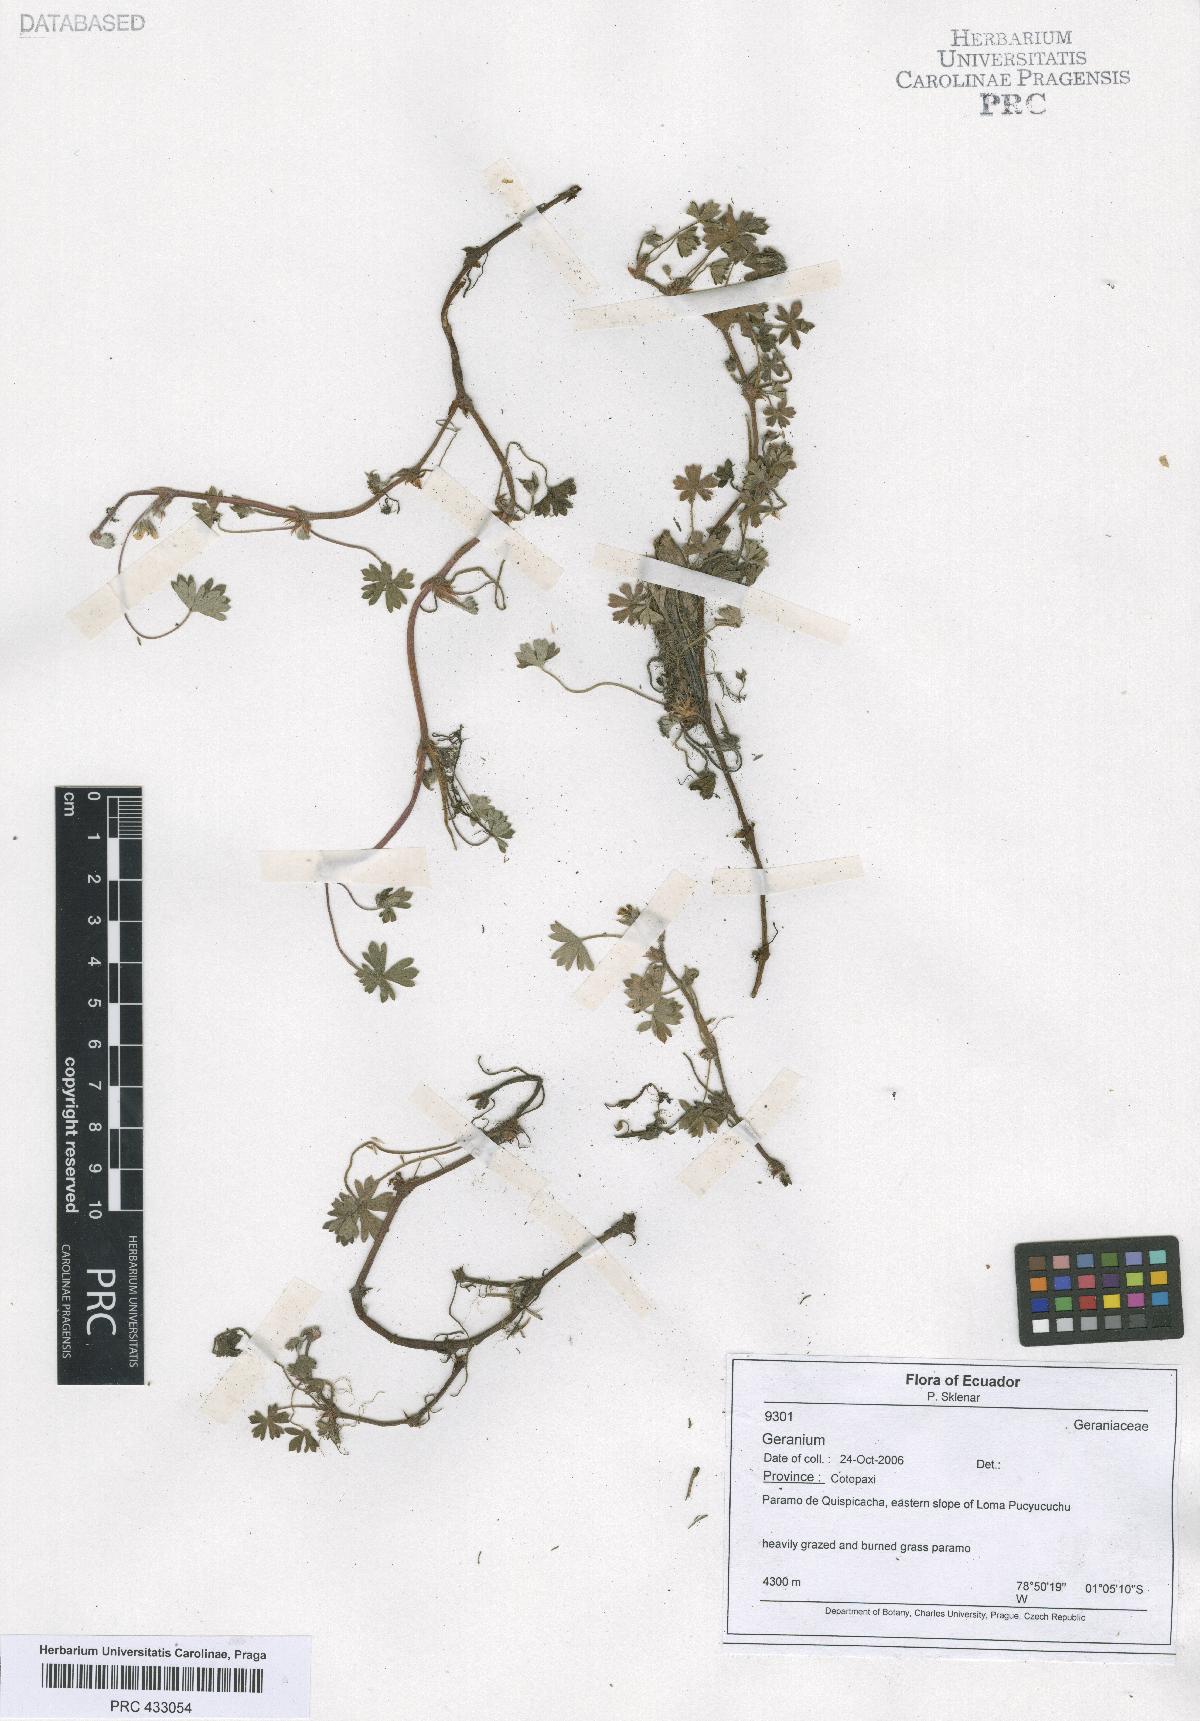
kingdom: Plantae
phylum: Tracheophyta
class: Magnoliopsida
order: Geraniales
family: Geraniaceae
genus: Geranium
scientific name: Geranium reptans
